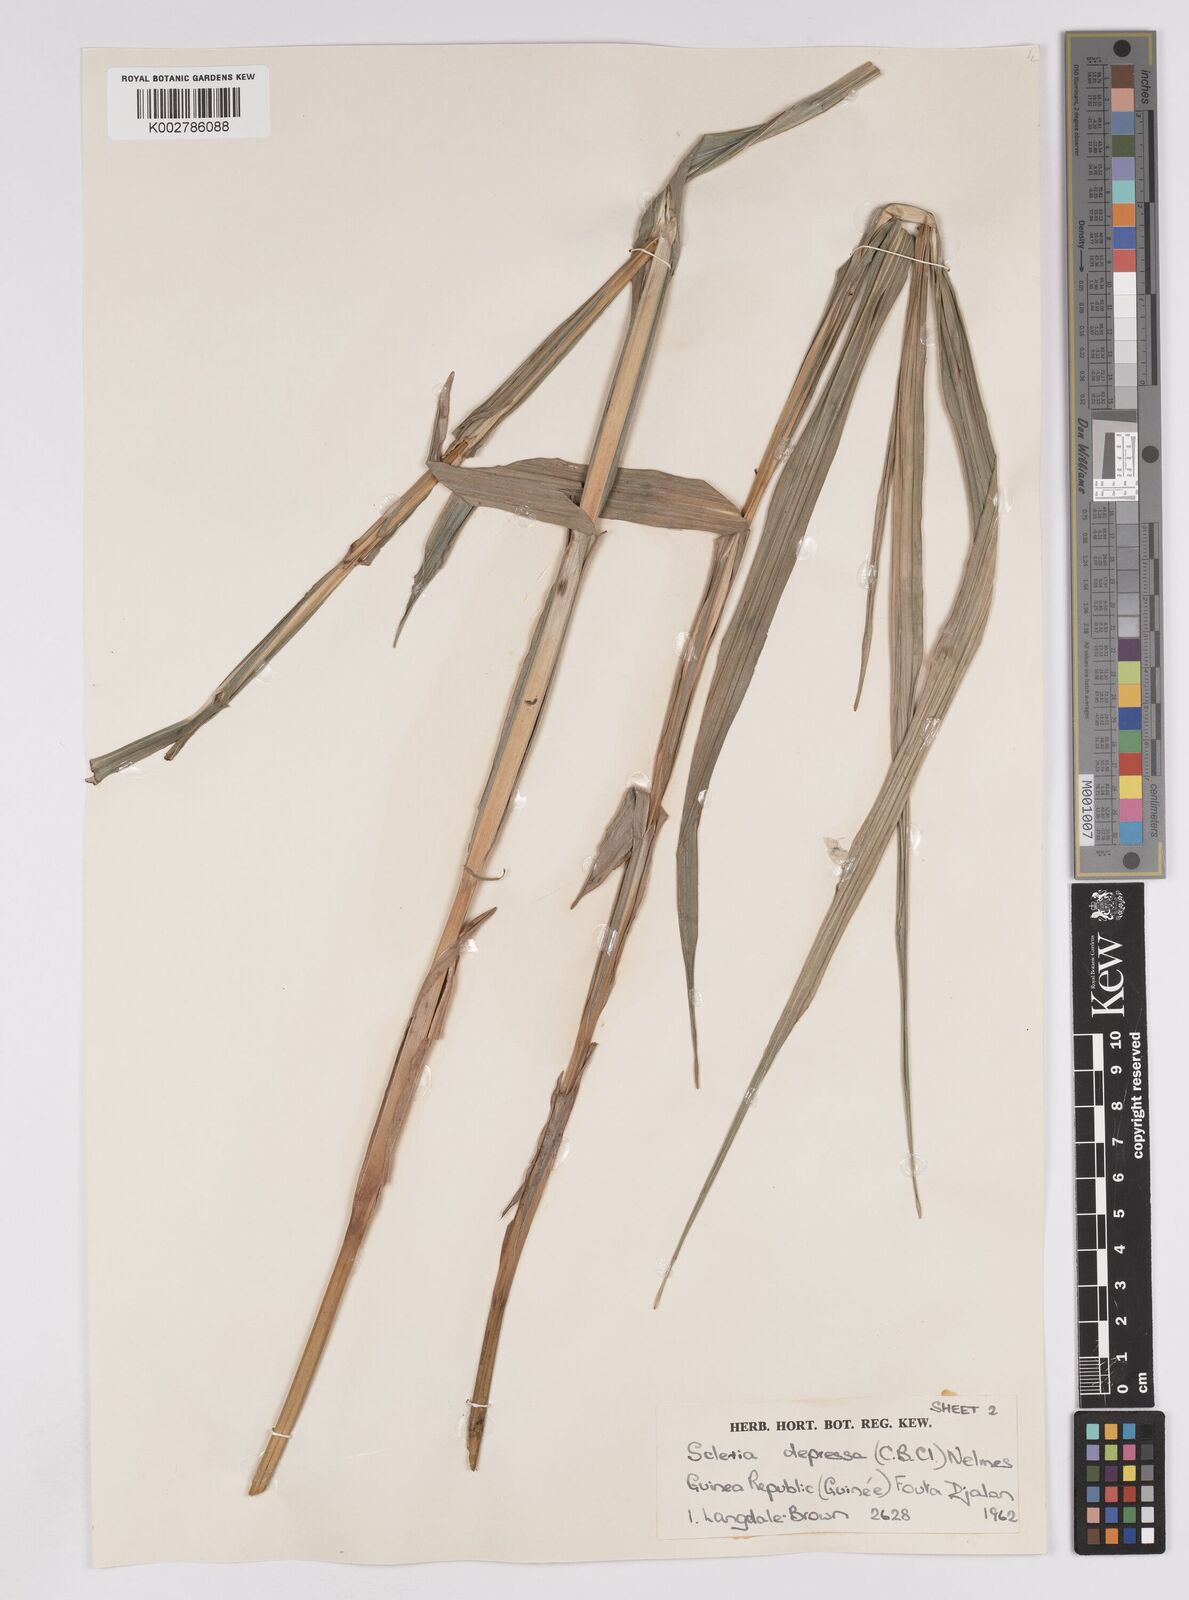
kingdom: Plantae
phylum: Tracheophyta
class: Liliopsida
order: Poales
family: Cyperaceae
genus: Scleria
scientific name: Scleria depressa
